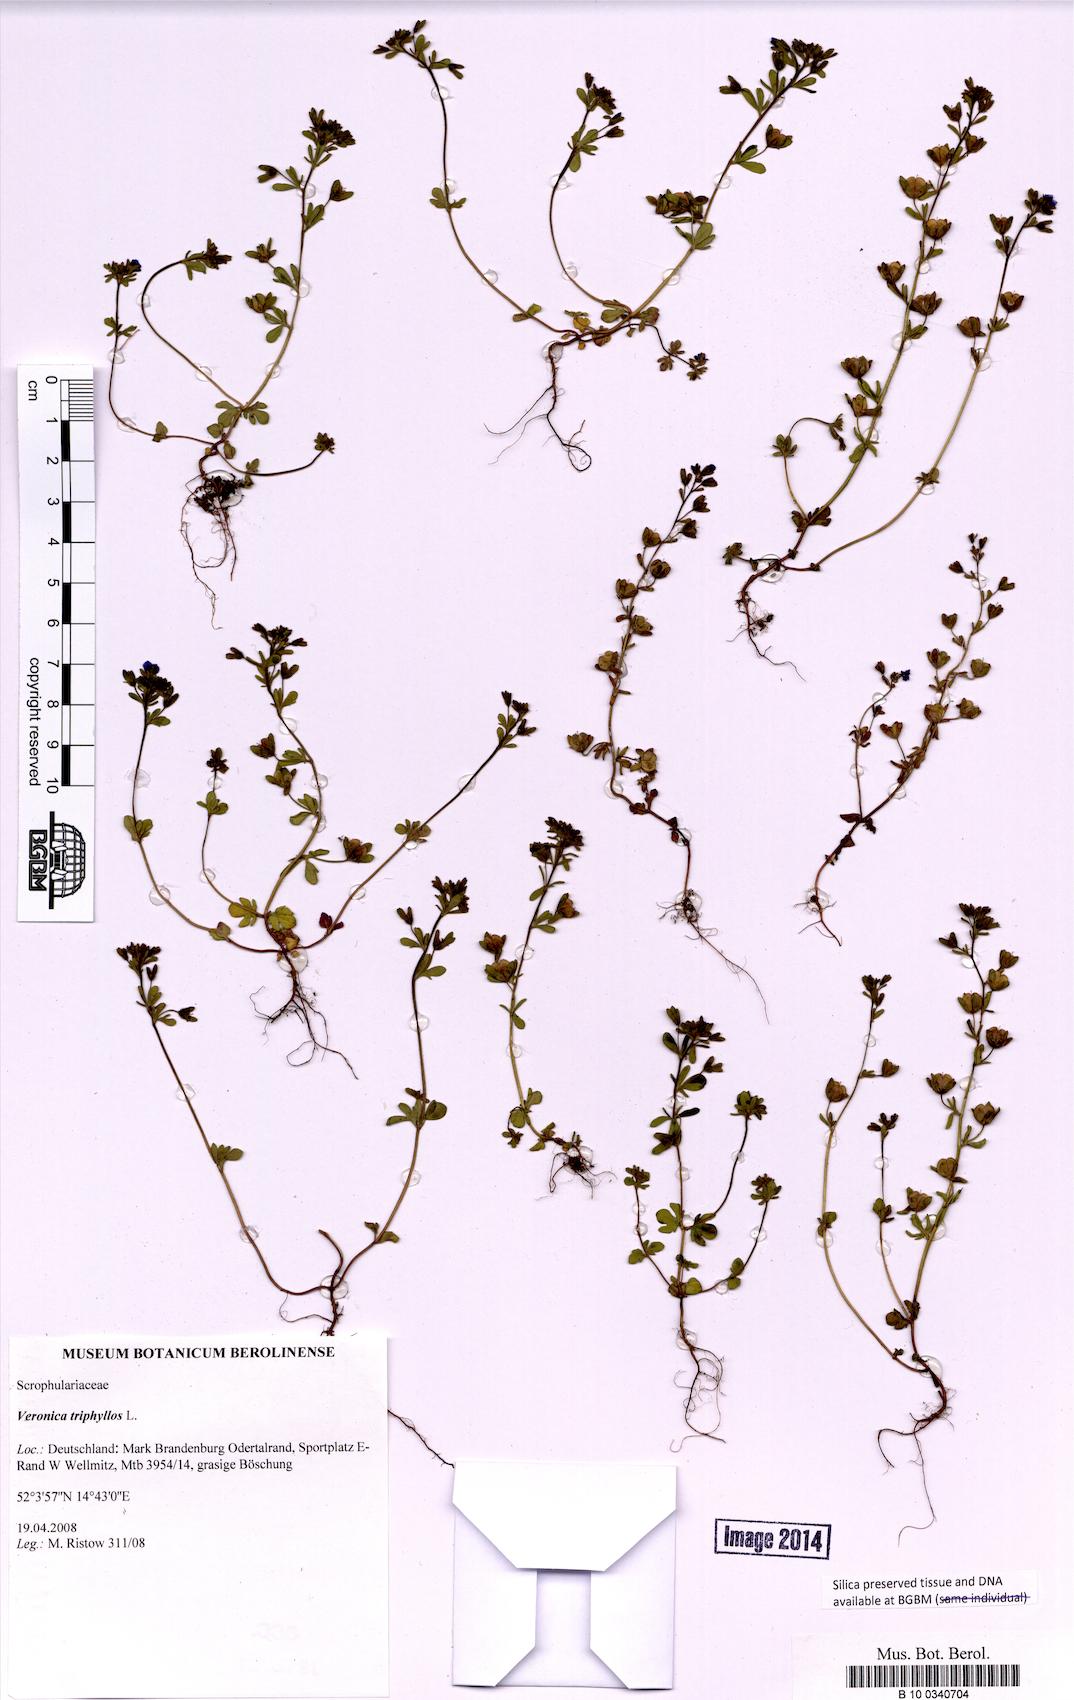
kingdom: Plantae
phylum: Tracheophyta
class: Magnoliopsida
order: Lamiales
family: Plantaginaceae
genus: Veronica
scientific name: Veronica triphyllos
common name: Fingered speedwell
